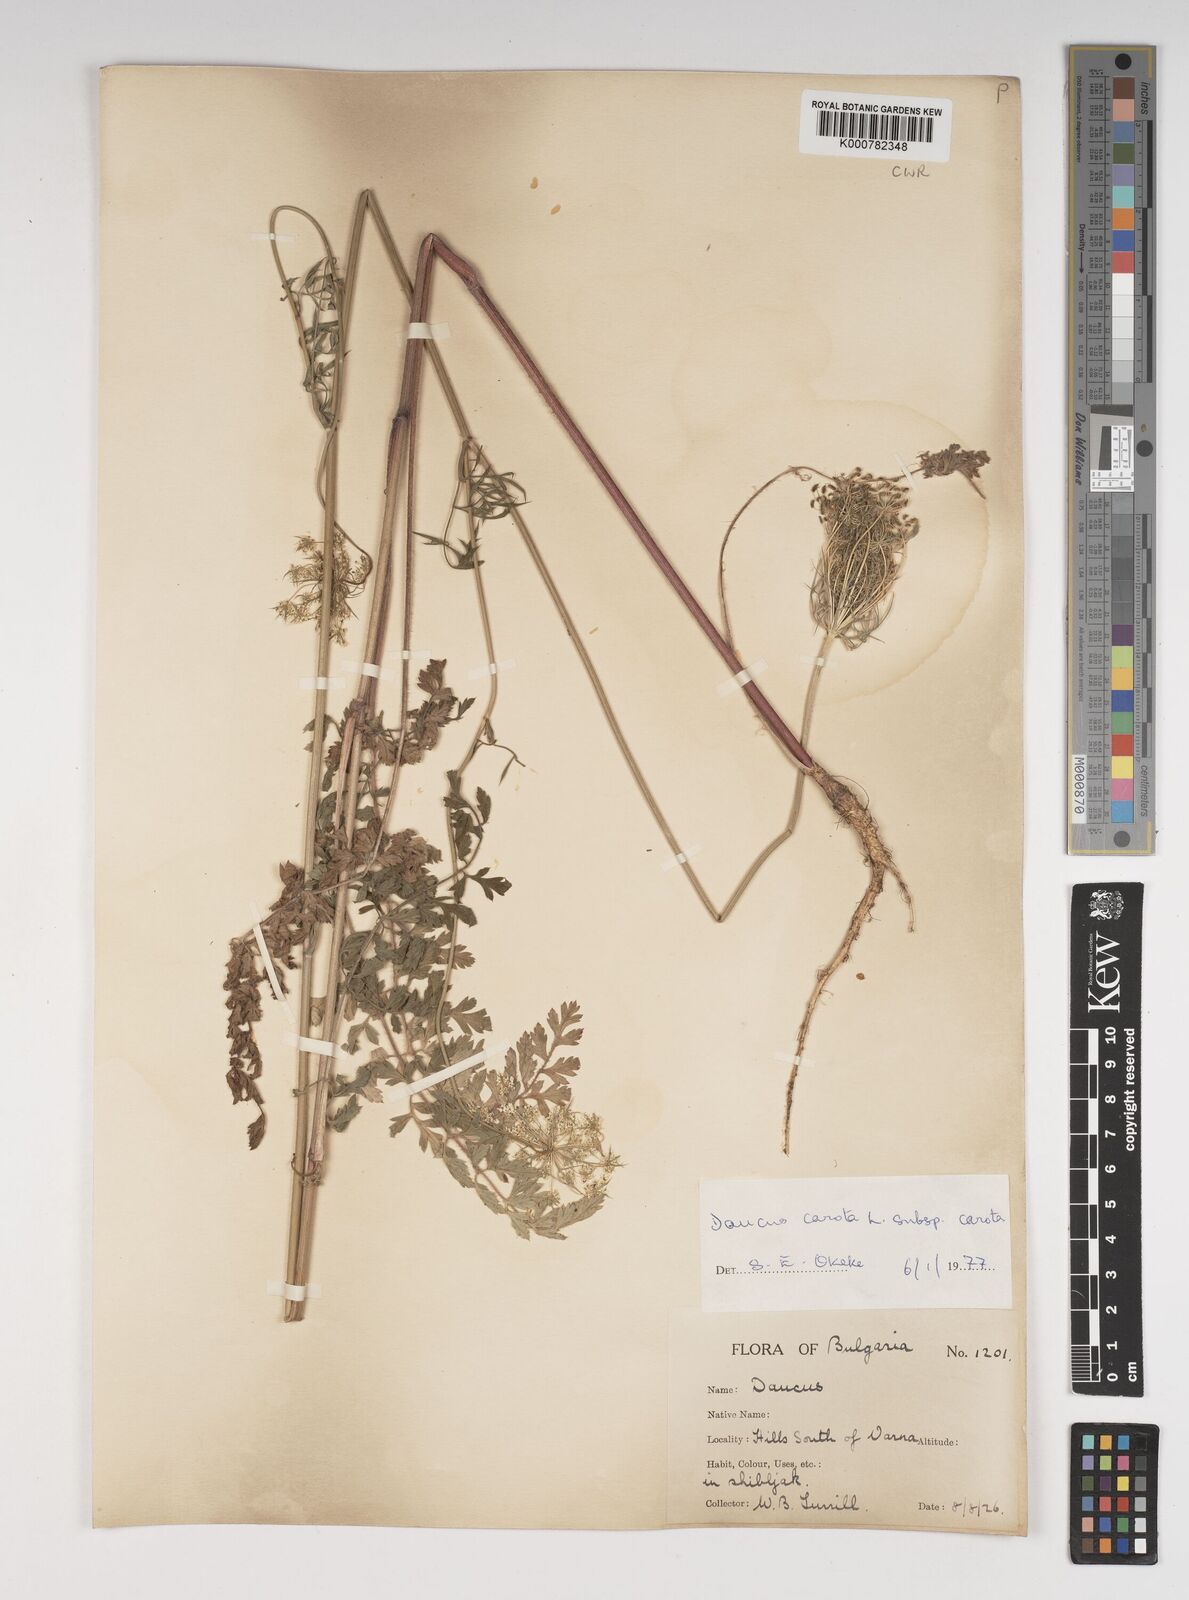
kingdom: Plantae
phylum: Tracheophyta
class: Magnoliopsida
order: Apiales
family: Apiaceae
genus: Daucus
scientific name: Daucus carota
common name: Wild carrot
